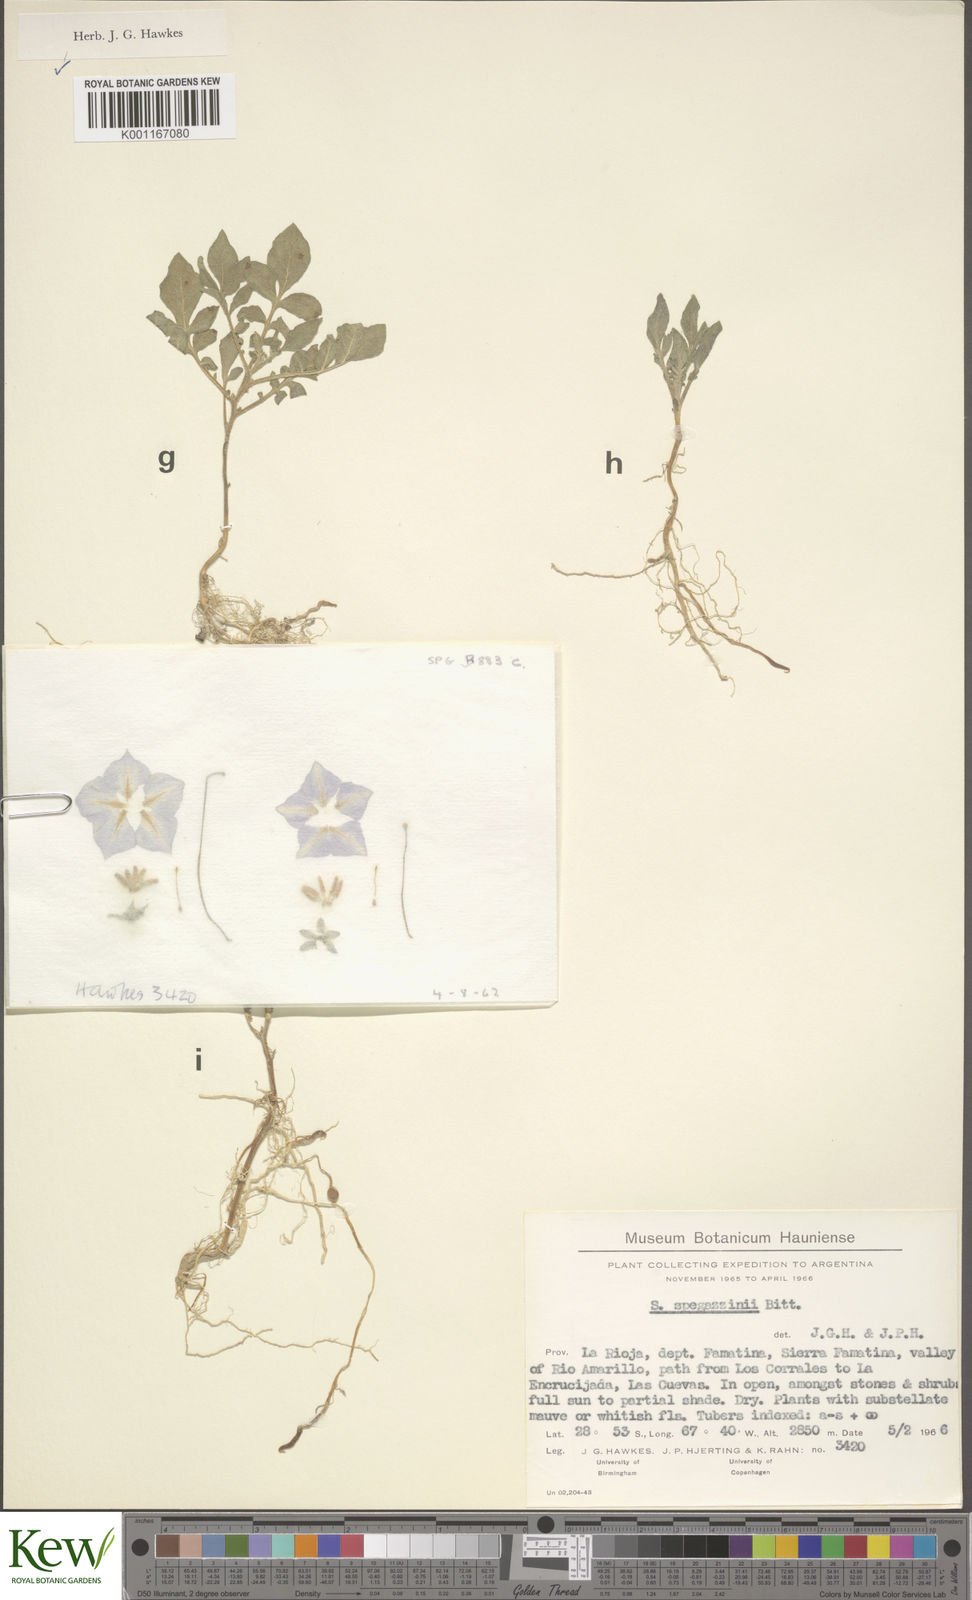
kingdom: Plantae
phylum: Tracheophyta
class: Magnoliopsida
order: Solanales
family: Solanaceae
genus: Solanum
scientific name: Solanum brevicaule
